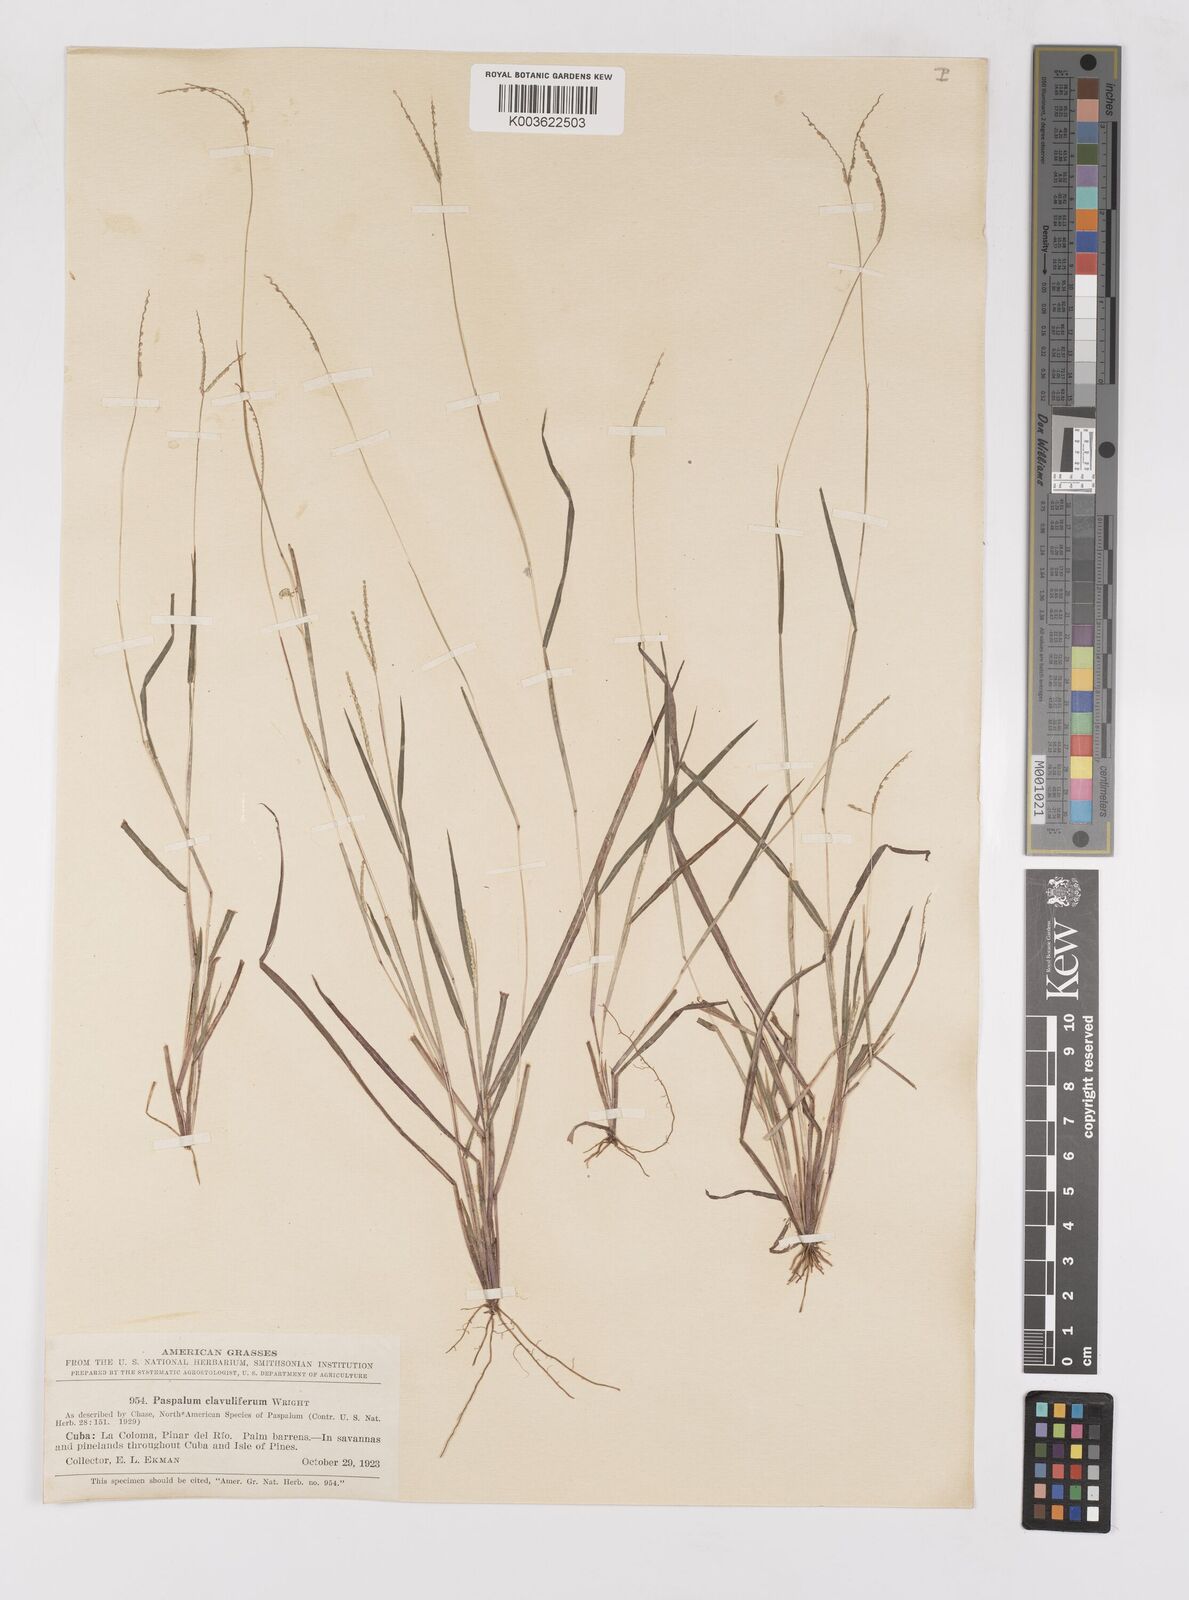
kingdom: Plantae
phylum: Tracheophyta
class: Liliopsida
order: Poales
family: Poaceae
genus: Paspalum
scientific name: Paspalum clavuliferum
